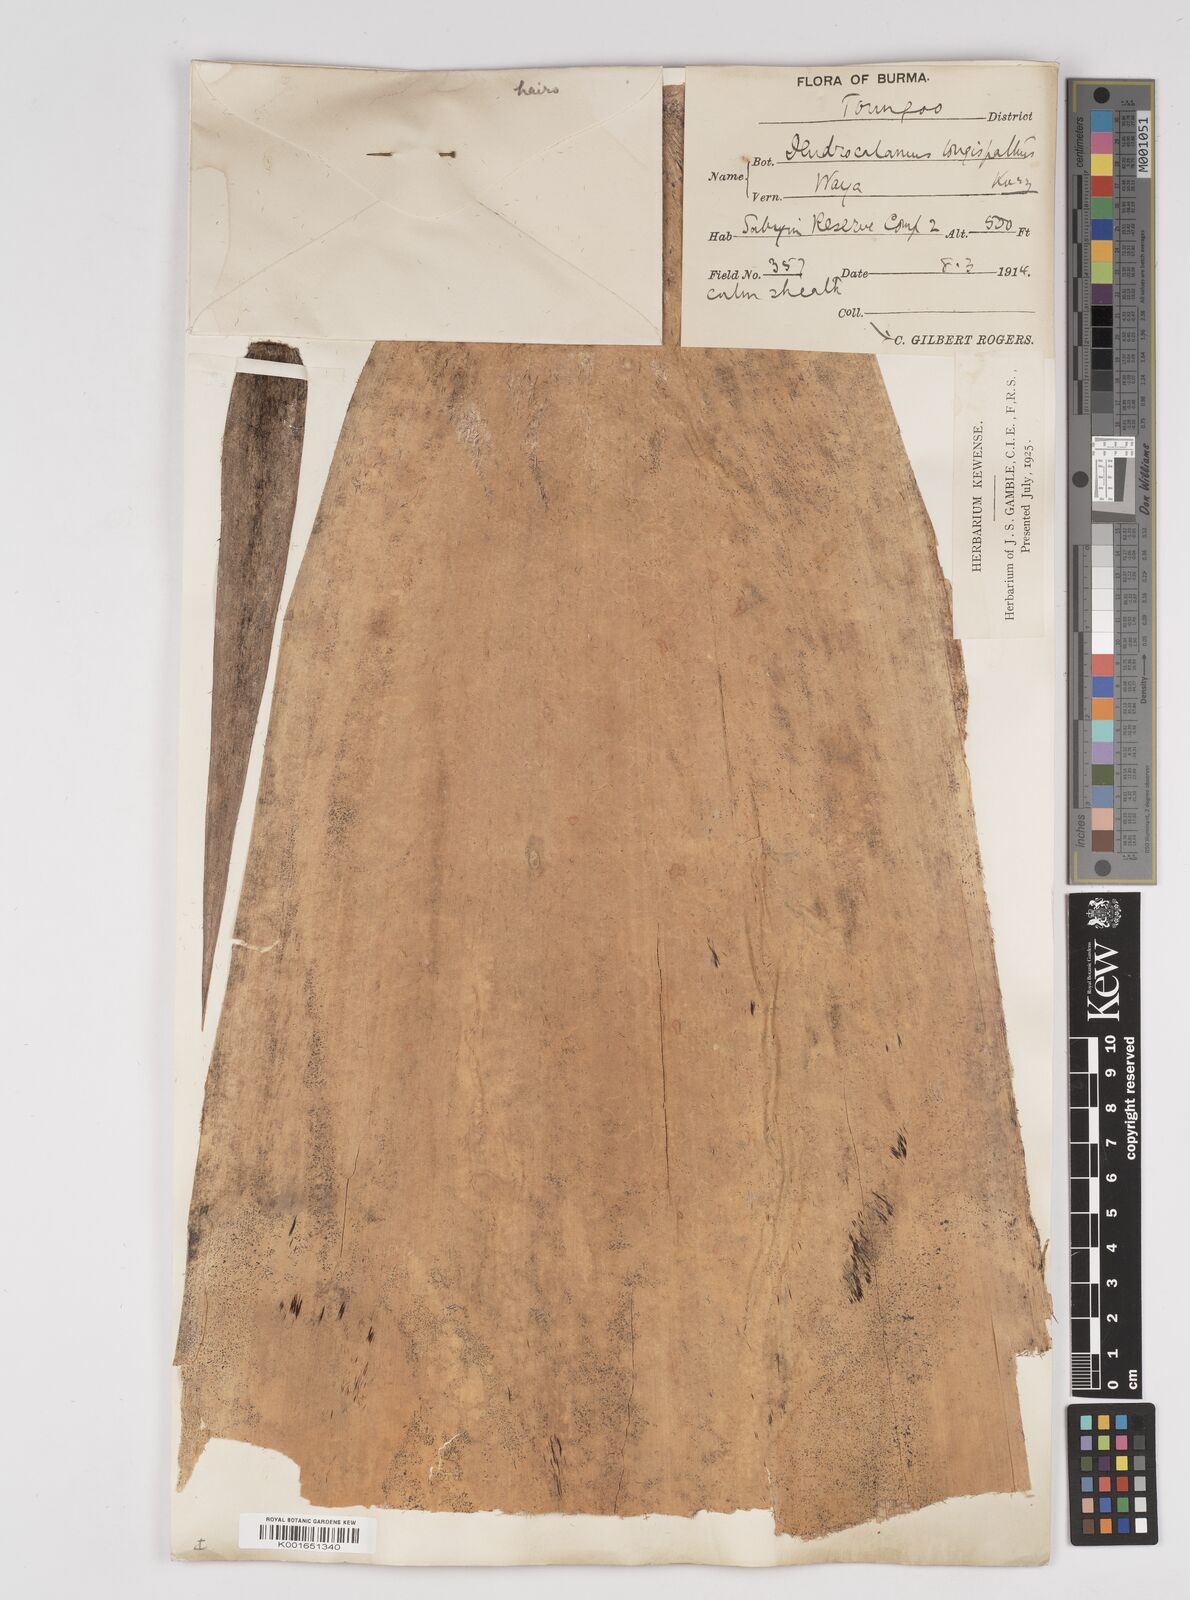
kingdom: Plantae
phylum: Tracheophyta
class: Liliopsida
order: Poales
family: Poaceae
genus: Dendrocalamus
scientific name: Dendrocalamus longispathus
